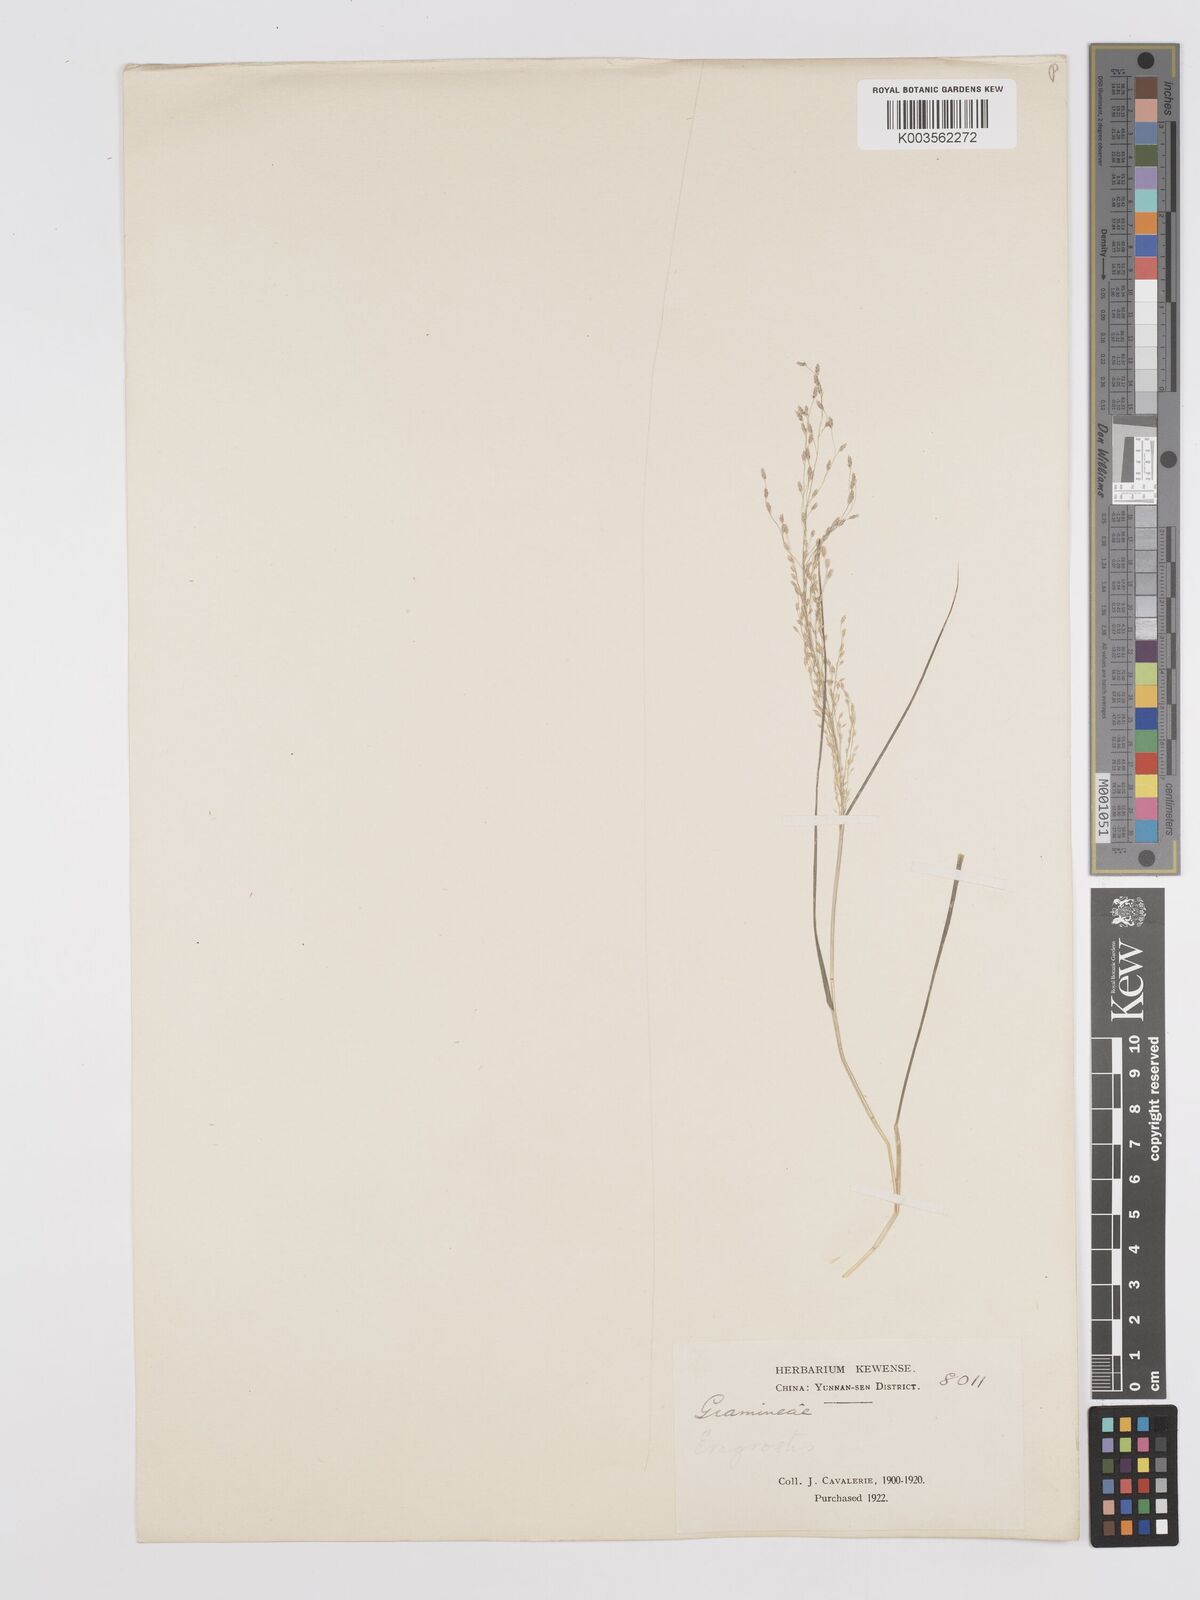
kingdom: Plantae
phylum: Tracheophyta
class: Liliopsida
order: Poales
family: Poaceae
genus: Eragrostis
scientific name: Eragrostis pilosa
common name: Indian lovegrass
